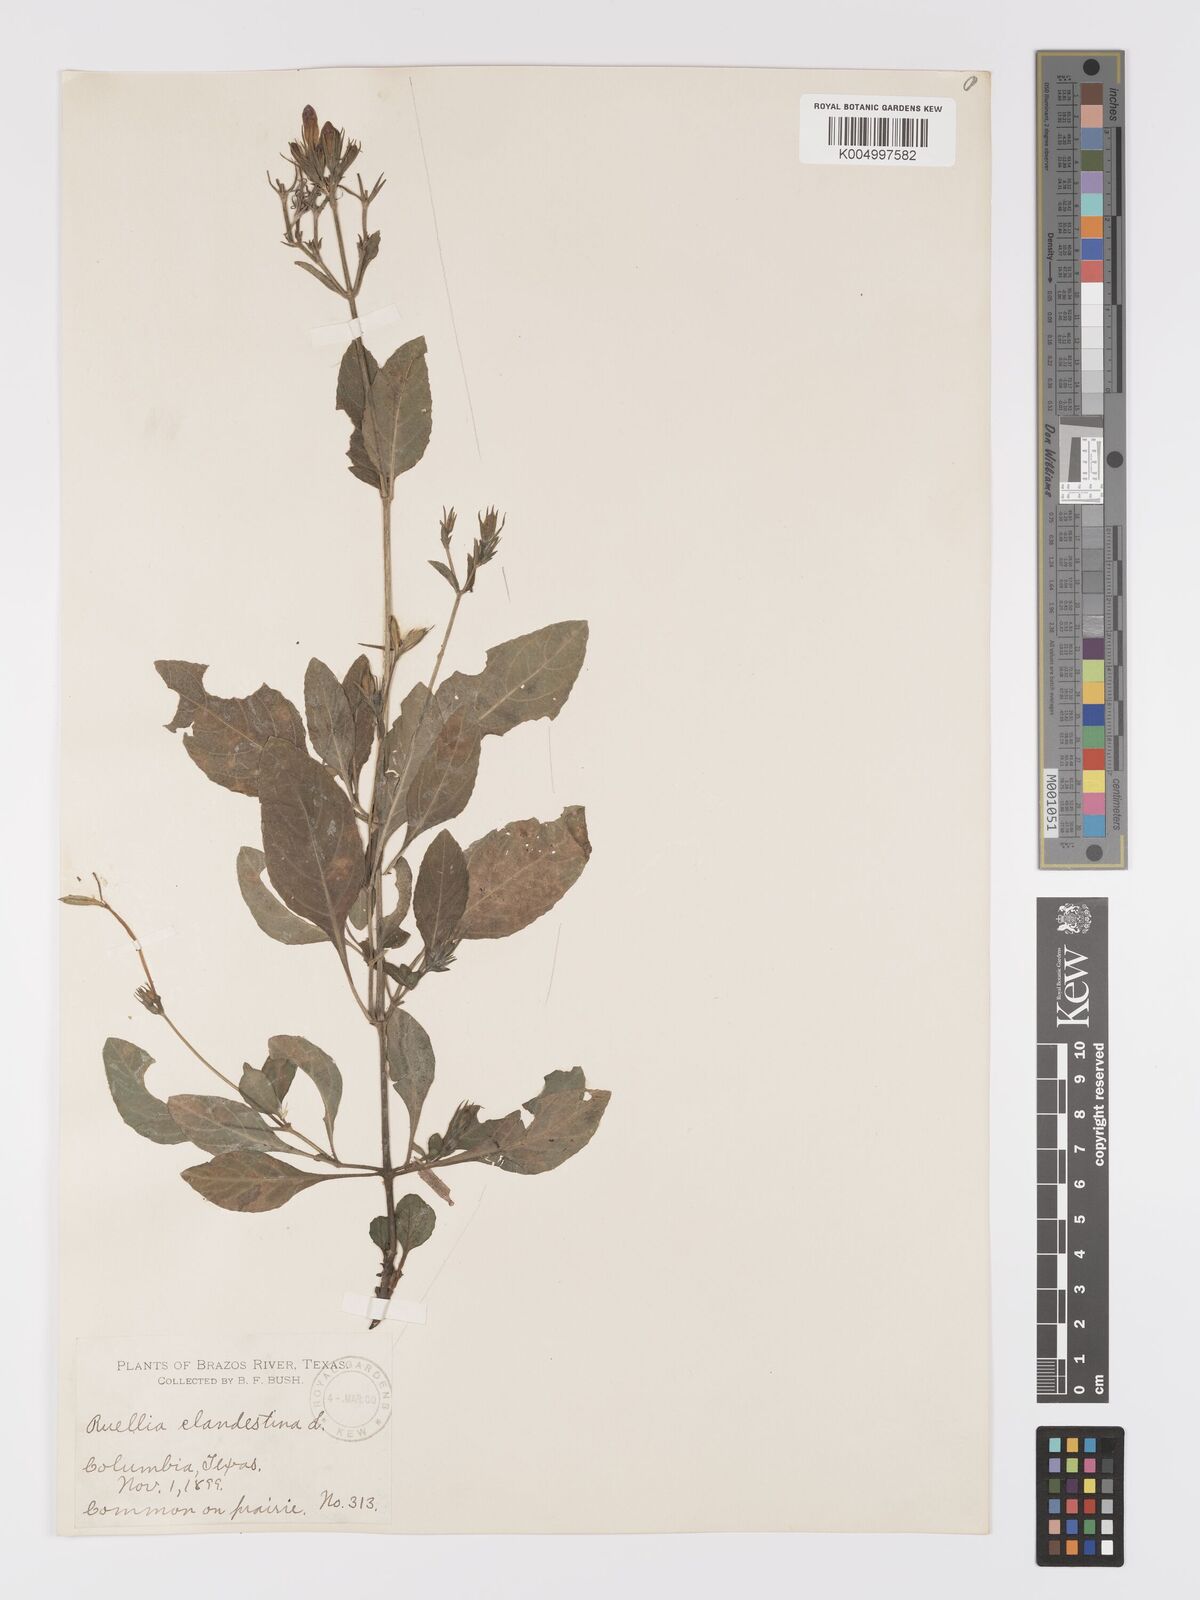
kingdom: Plantae
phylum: Tracheophyta
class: Magnoliopsida
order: Lamiales
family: Acanthaceae
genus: Ruellia
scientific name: Ruellia tuberosa
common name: Devil's bit
